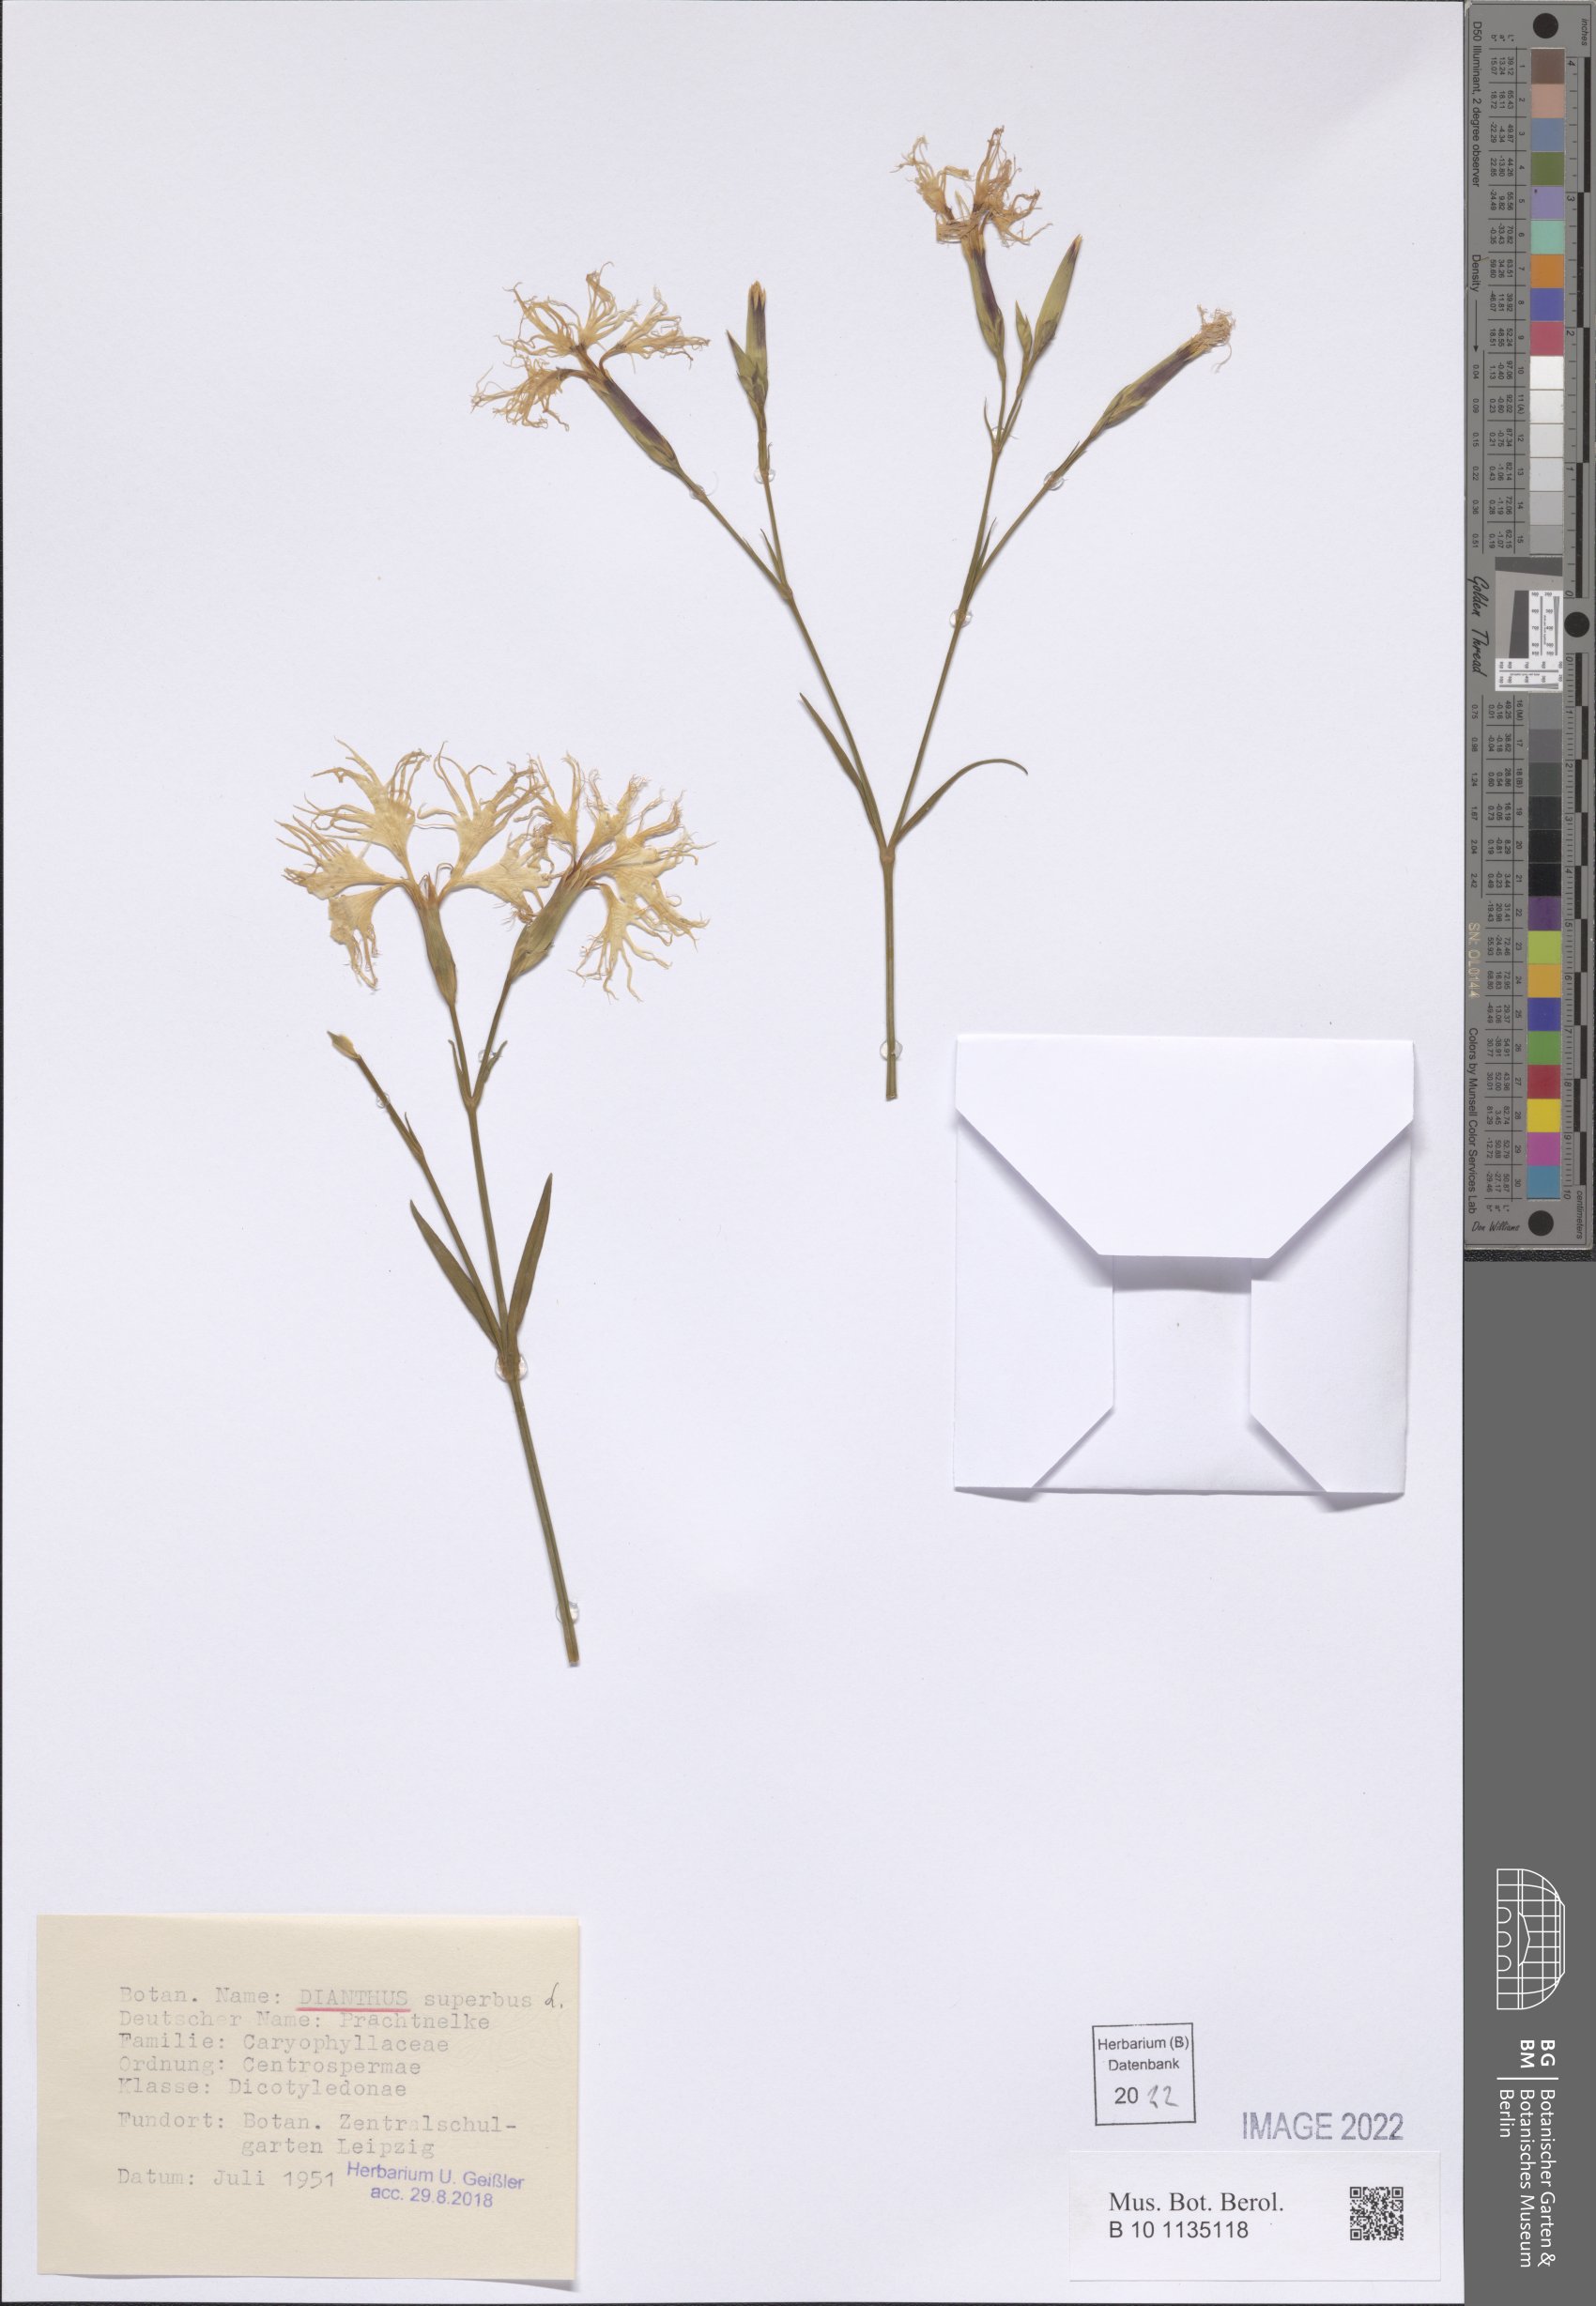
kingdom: Plantae
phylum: Tracheophyta
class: Magnoliopsida
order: Caryophyllales
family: Caryophyllaceae
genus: Dianthus
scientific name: Dianthus superbus
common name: Fringed pink
